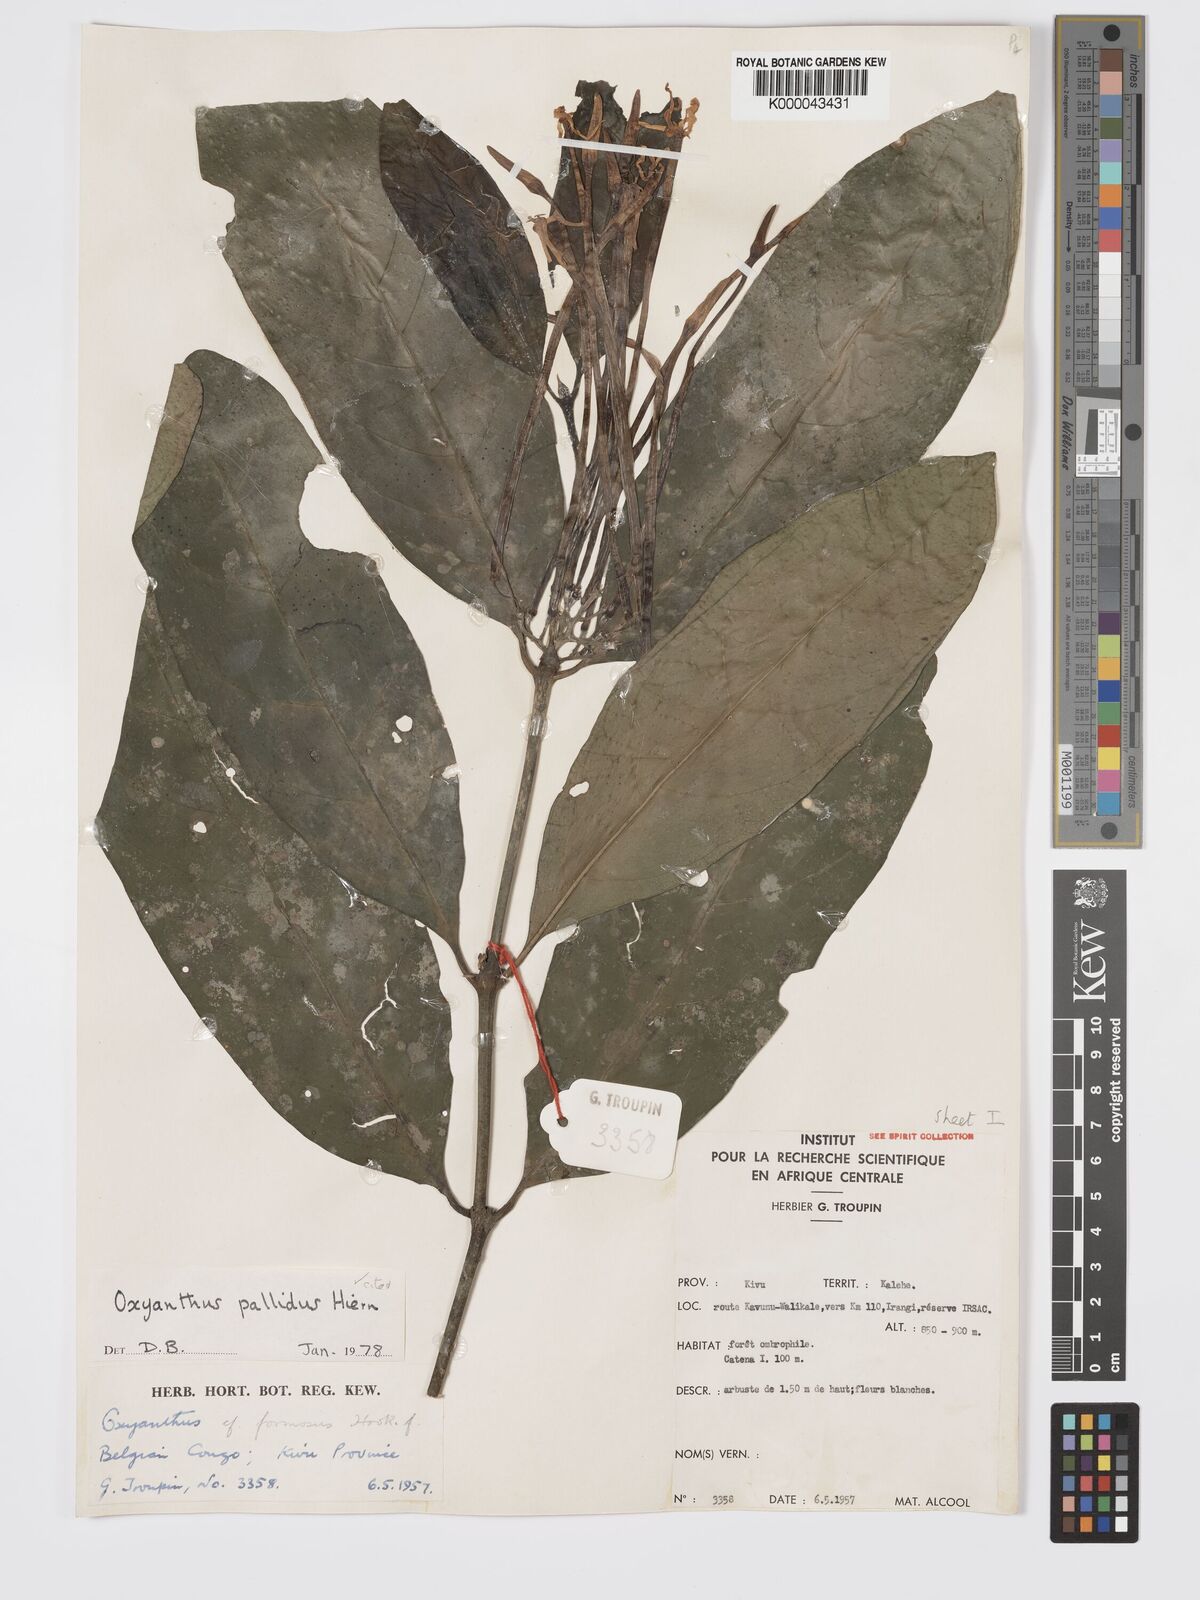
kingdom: Plantae
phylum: Tracheophyta
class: Magnoliopsida
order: Gentianales
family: Rubiaceae
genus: Oxyanthus
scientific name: Oxyanthus pallidus
